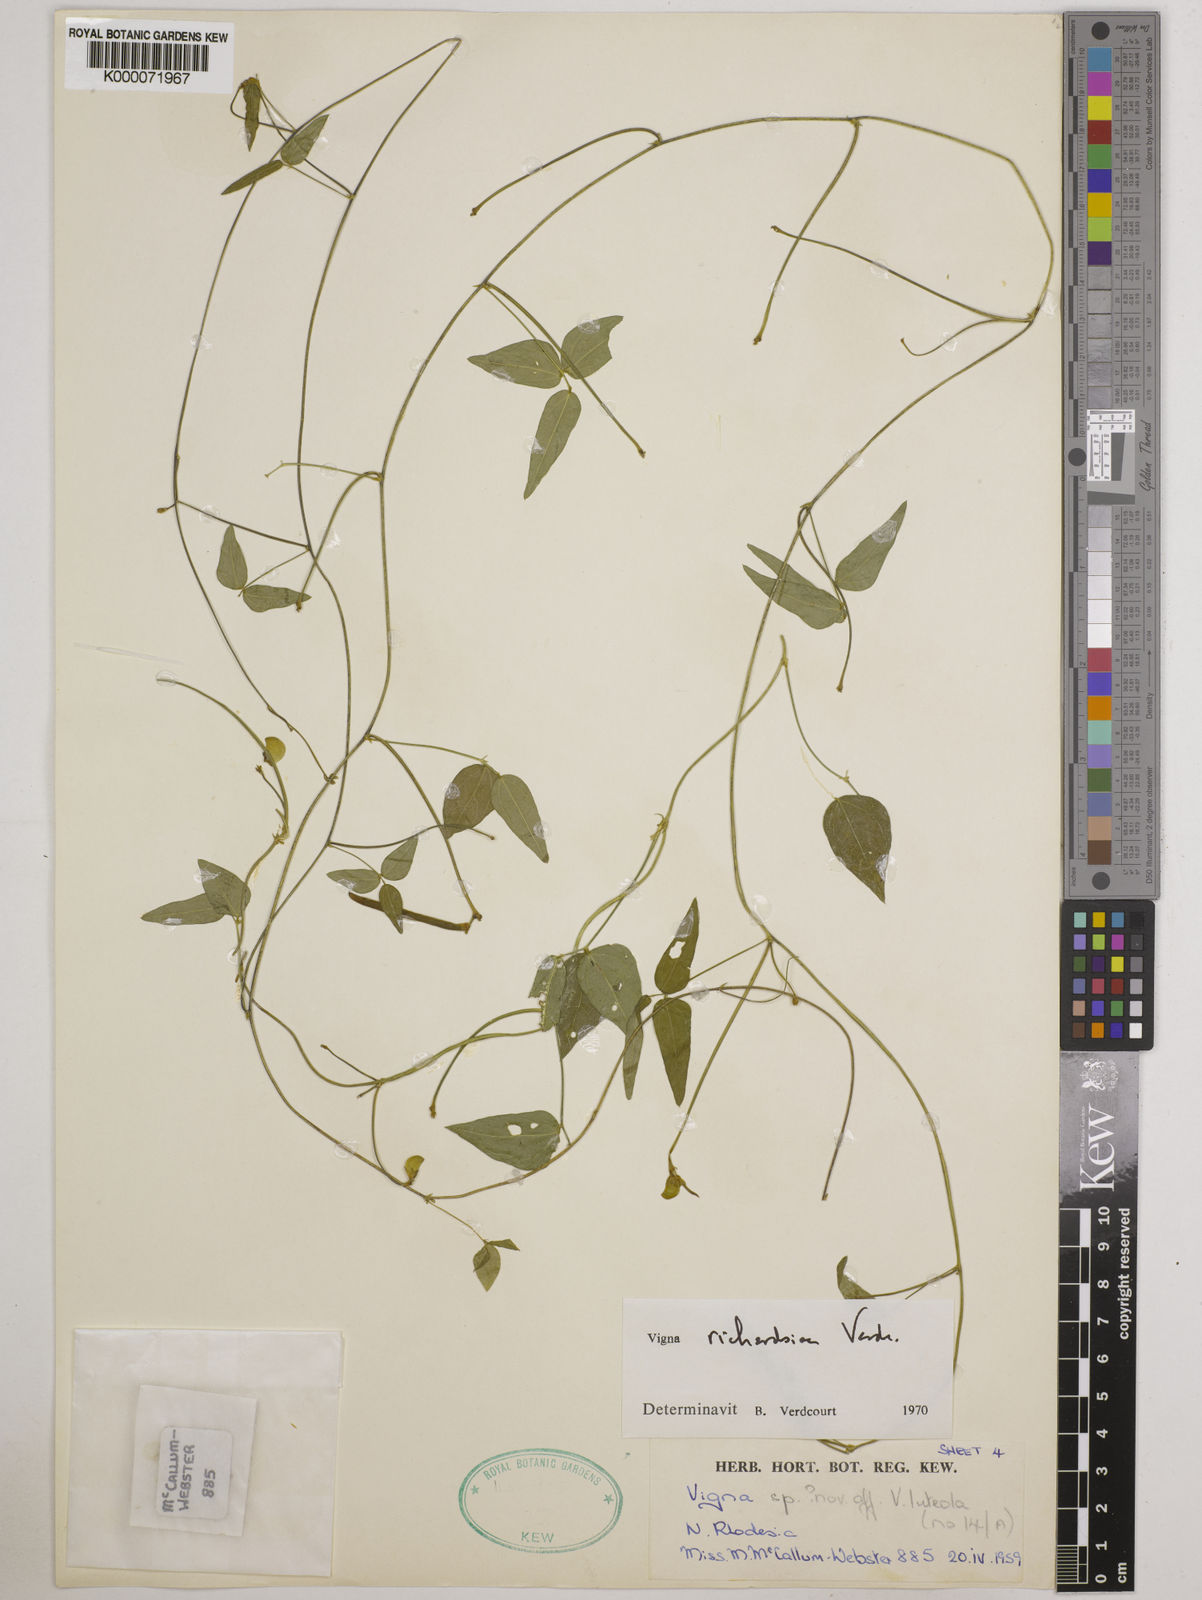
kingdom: Plantae
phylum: Tracheophyta
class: Magnoliopsida
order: Fabales
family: Fabaceae
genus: Vigna
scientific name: Vigna richardsiae
